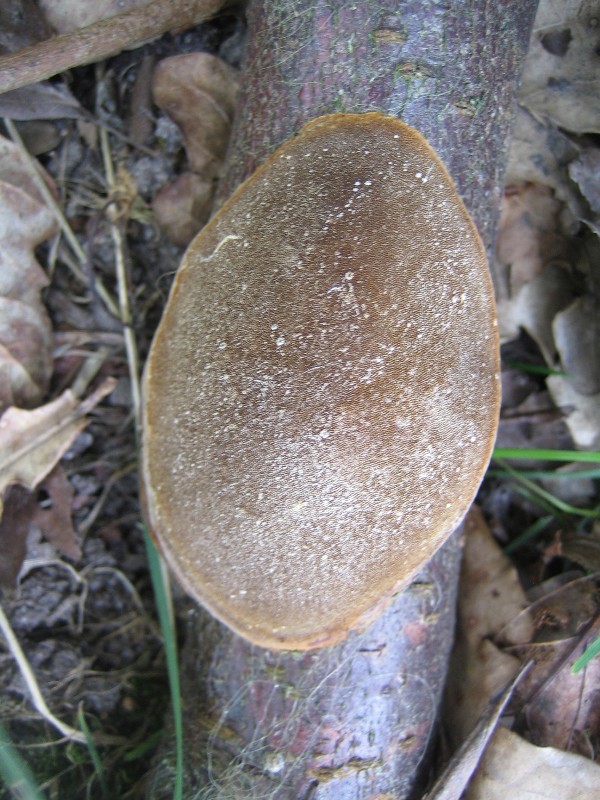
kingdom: Fungi
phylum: Basidiomycota
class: Agaricomycetes
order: Hymenochaetales
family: Hymenochaetaceae
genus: Phellinus
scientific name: Phellinus pomaceus
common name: blomme-ildporesvamp
